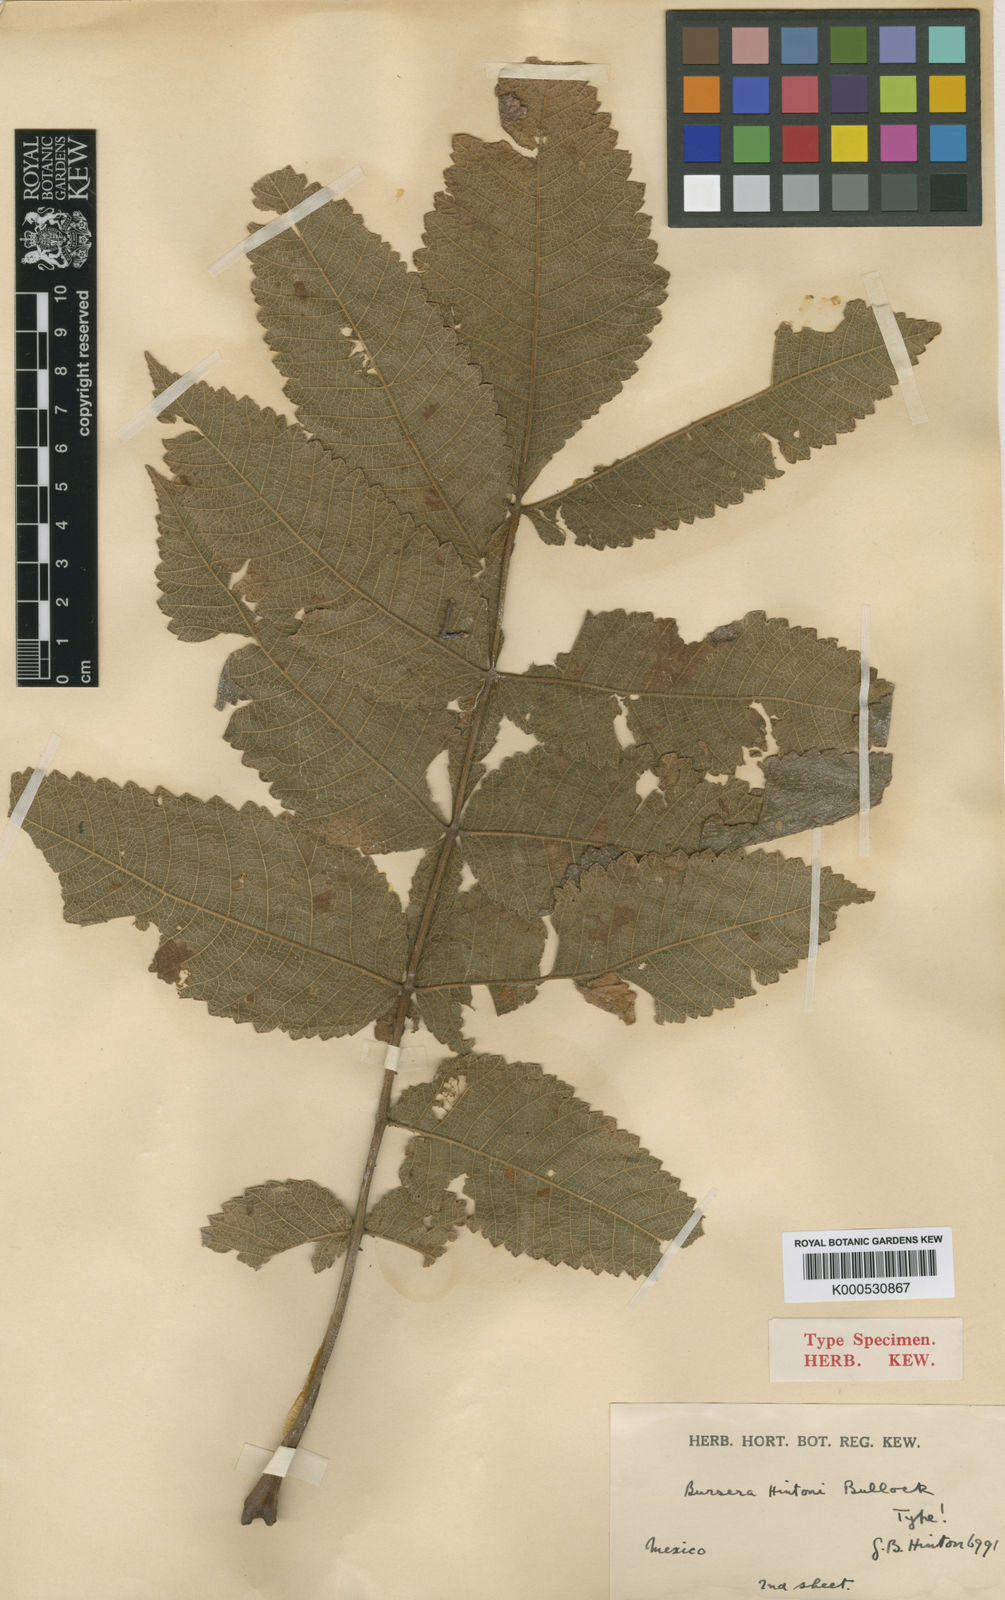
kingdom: Plantae
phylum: Tracheophyta
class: Magnoliopsida
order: Sapindales
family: Burseraceae
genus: Bursera
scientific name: Bursera hintonii
